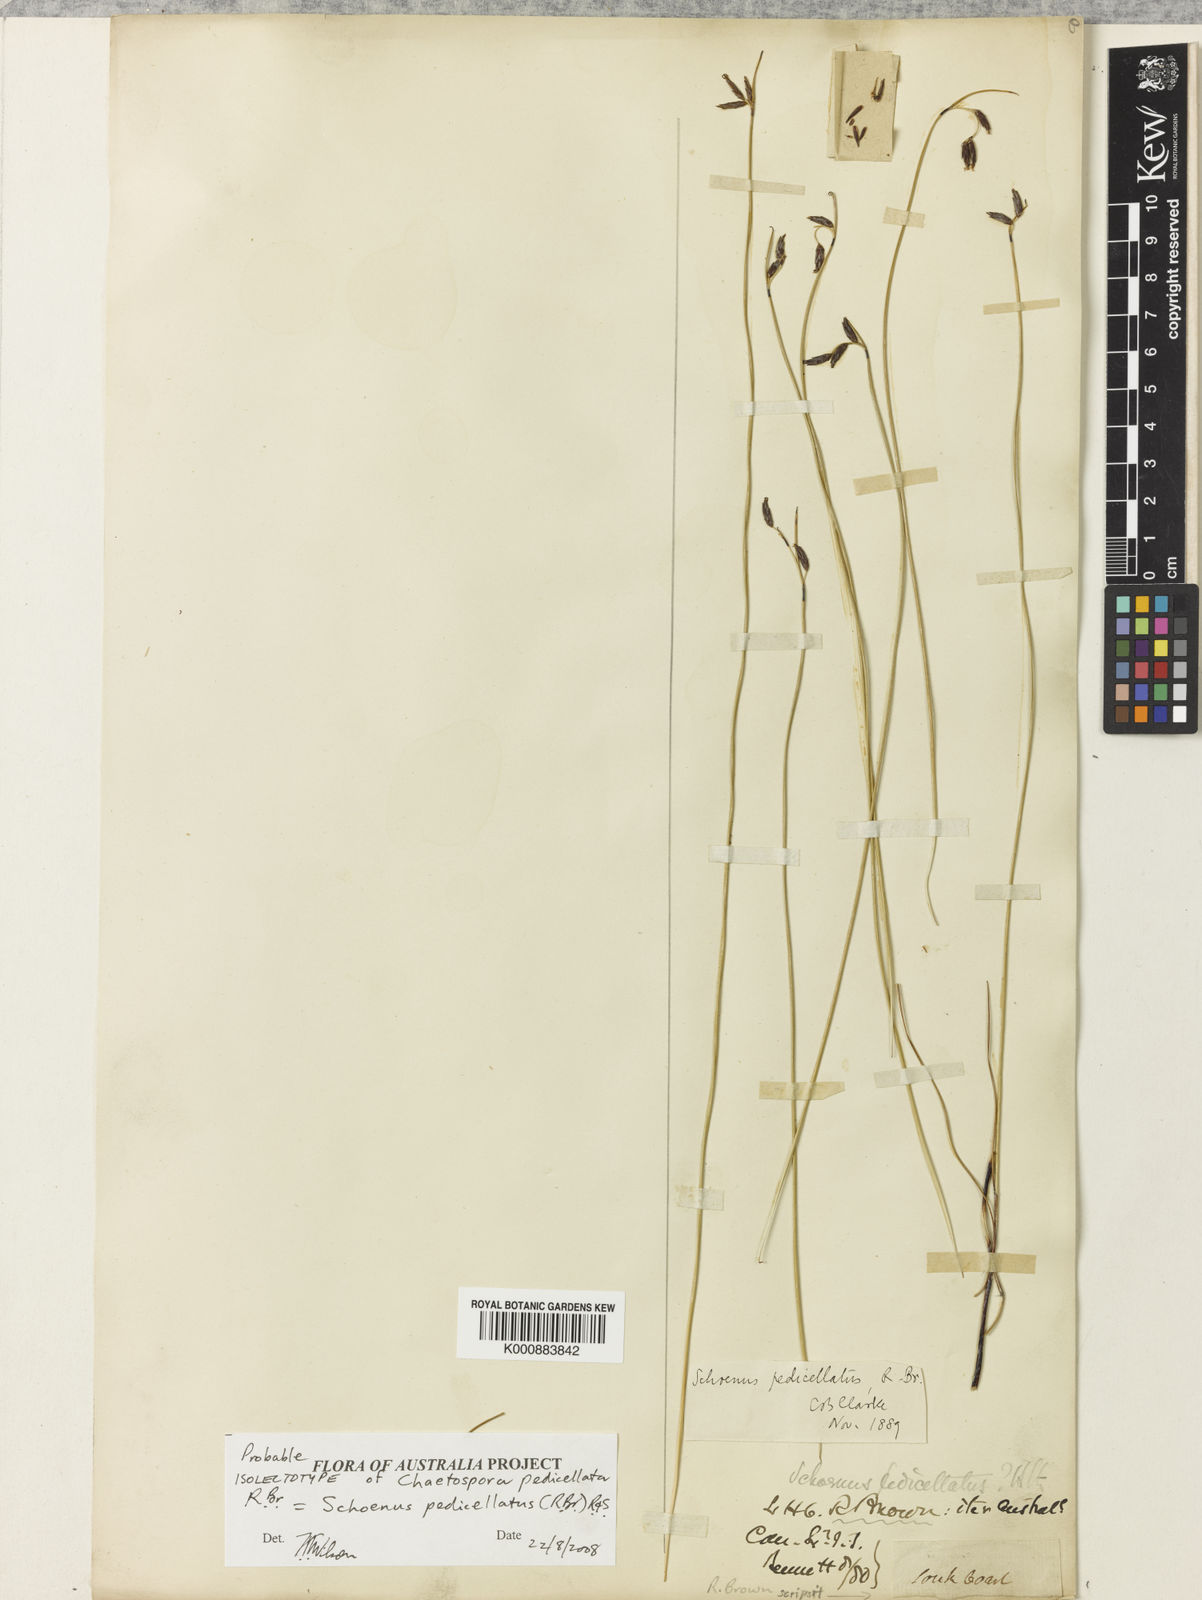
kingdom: Plantae
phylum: Tracheophyta
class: Liliopsida
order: Poales
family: Cyperaceae
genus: Schoenus
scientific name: Schoenus pedicellatus
